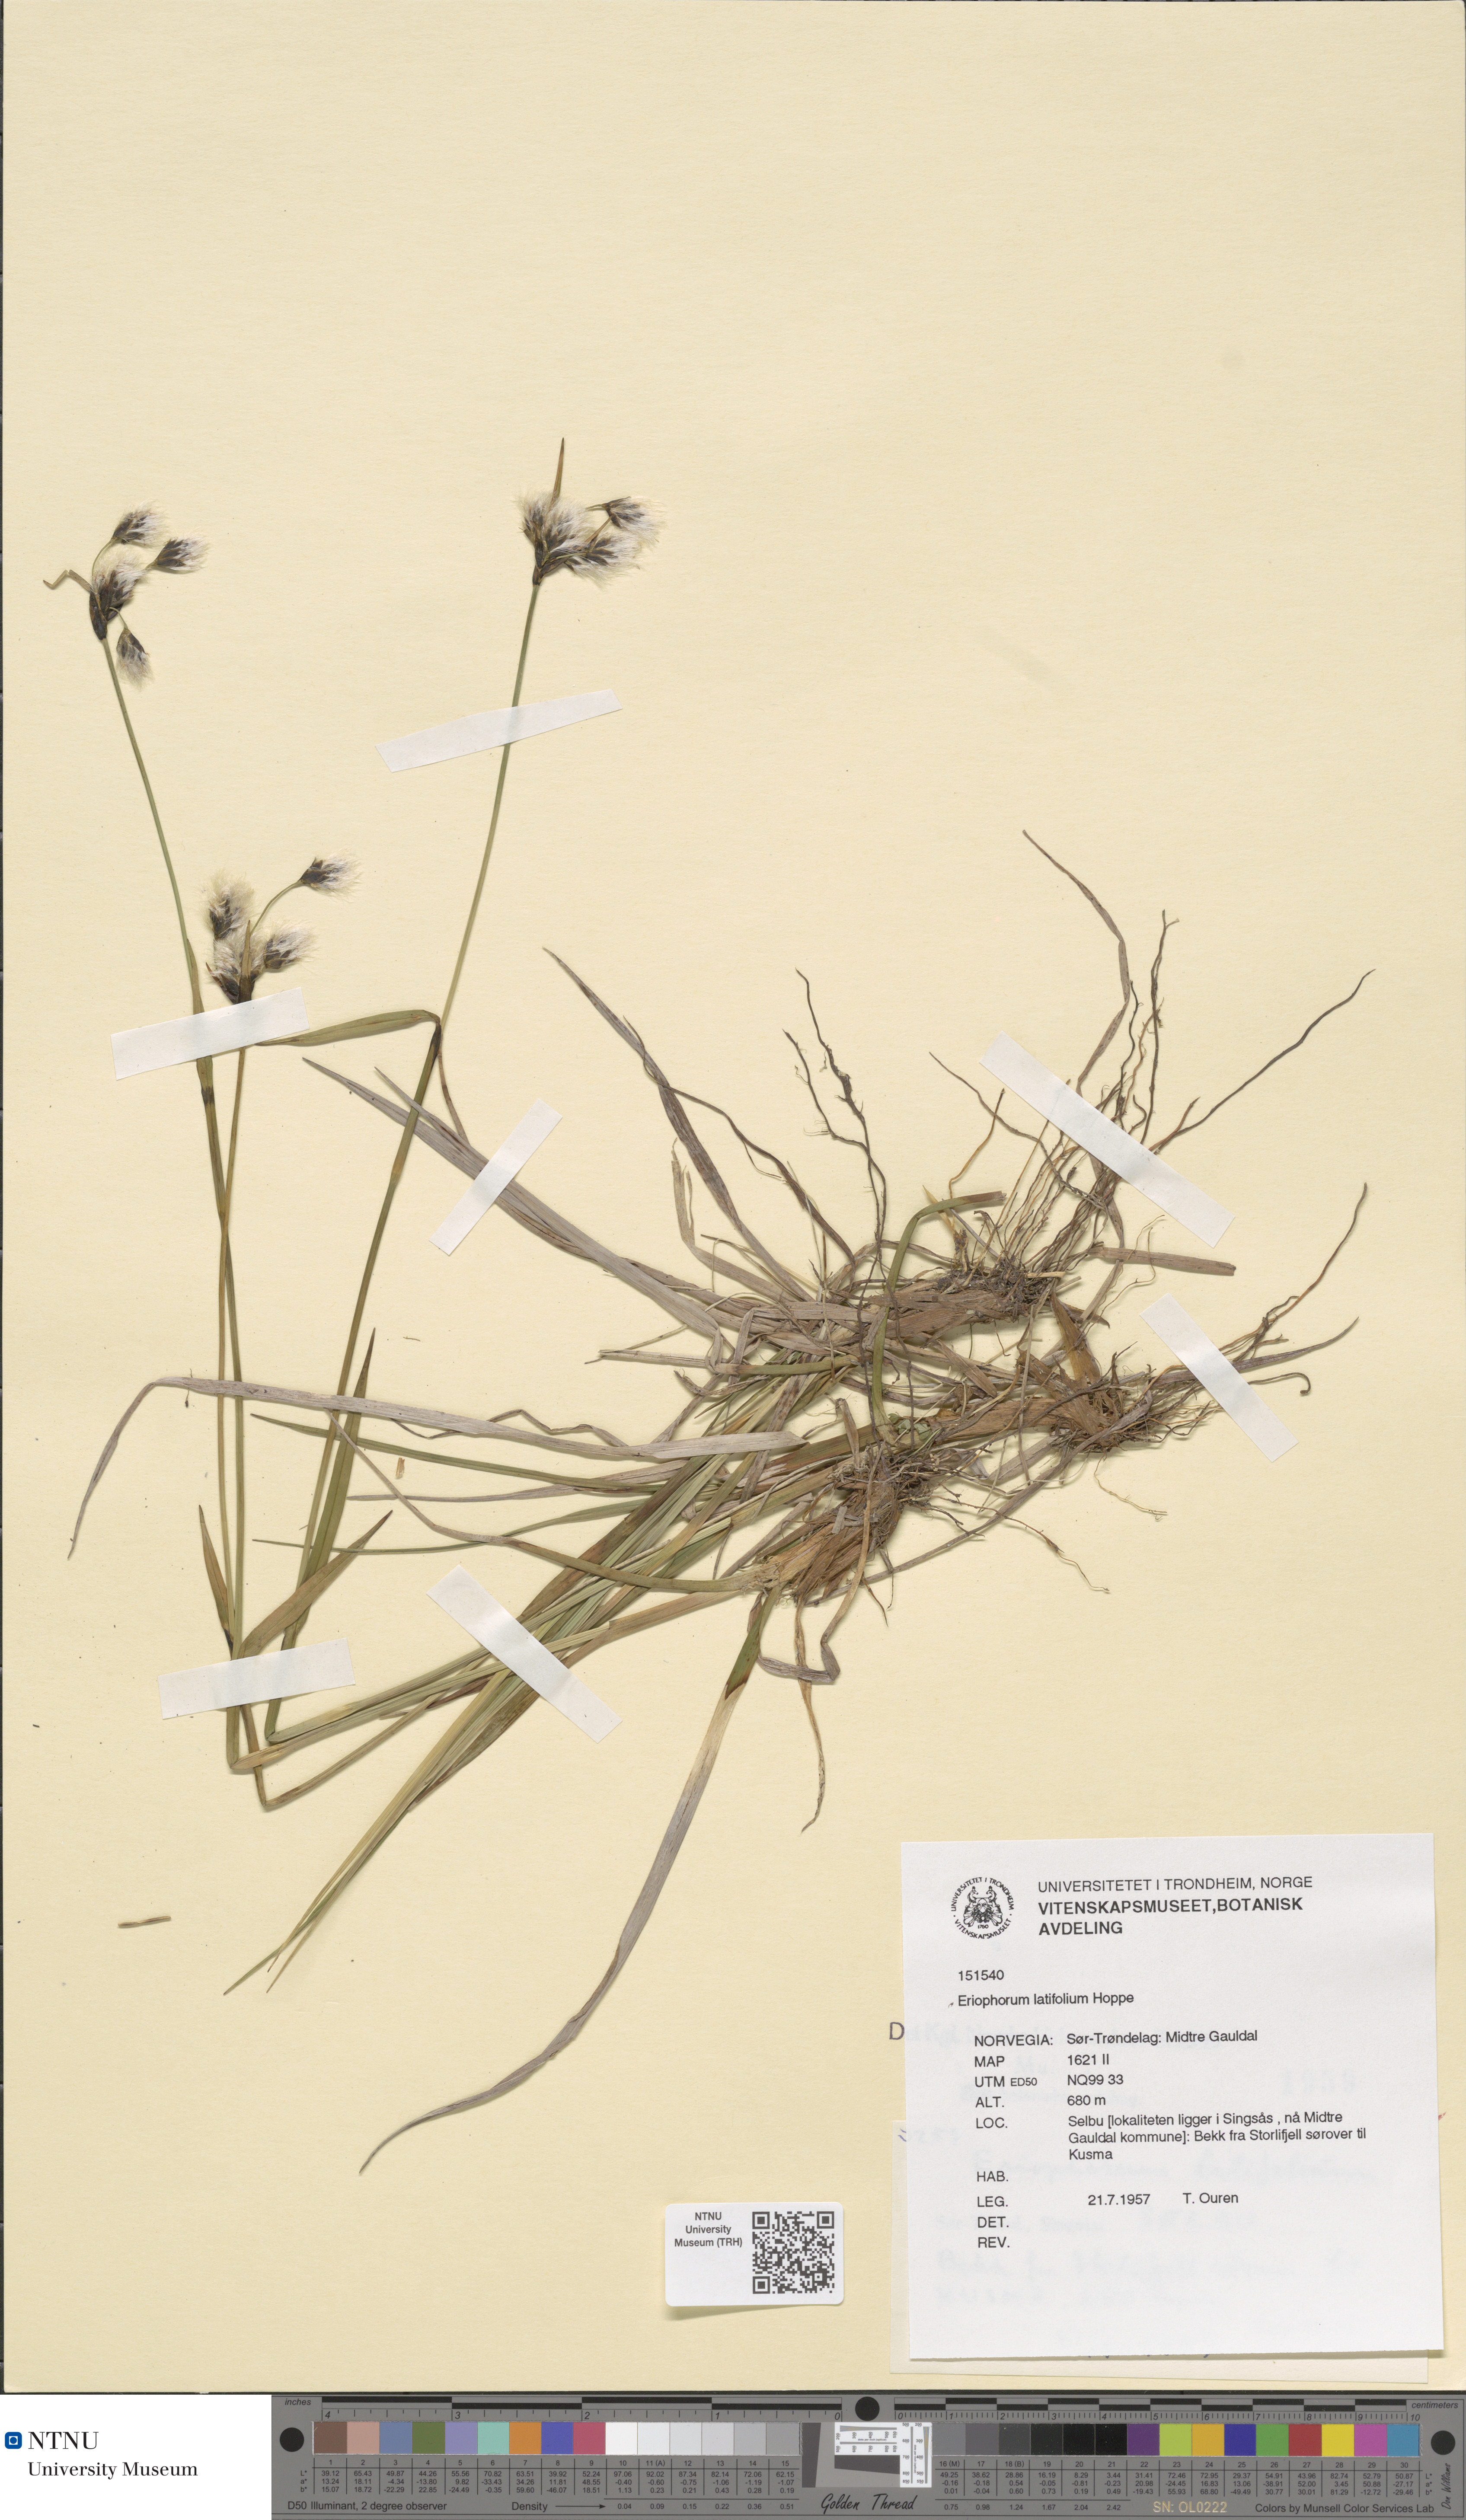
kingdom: Plantae
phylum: Tracheophyta
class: Liliopsida
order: Poales
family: Cyperaceae
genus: Eriophorum
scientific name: Eriophorum latifolium
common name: Broad-leaved cottongrass
